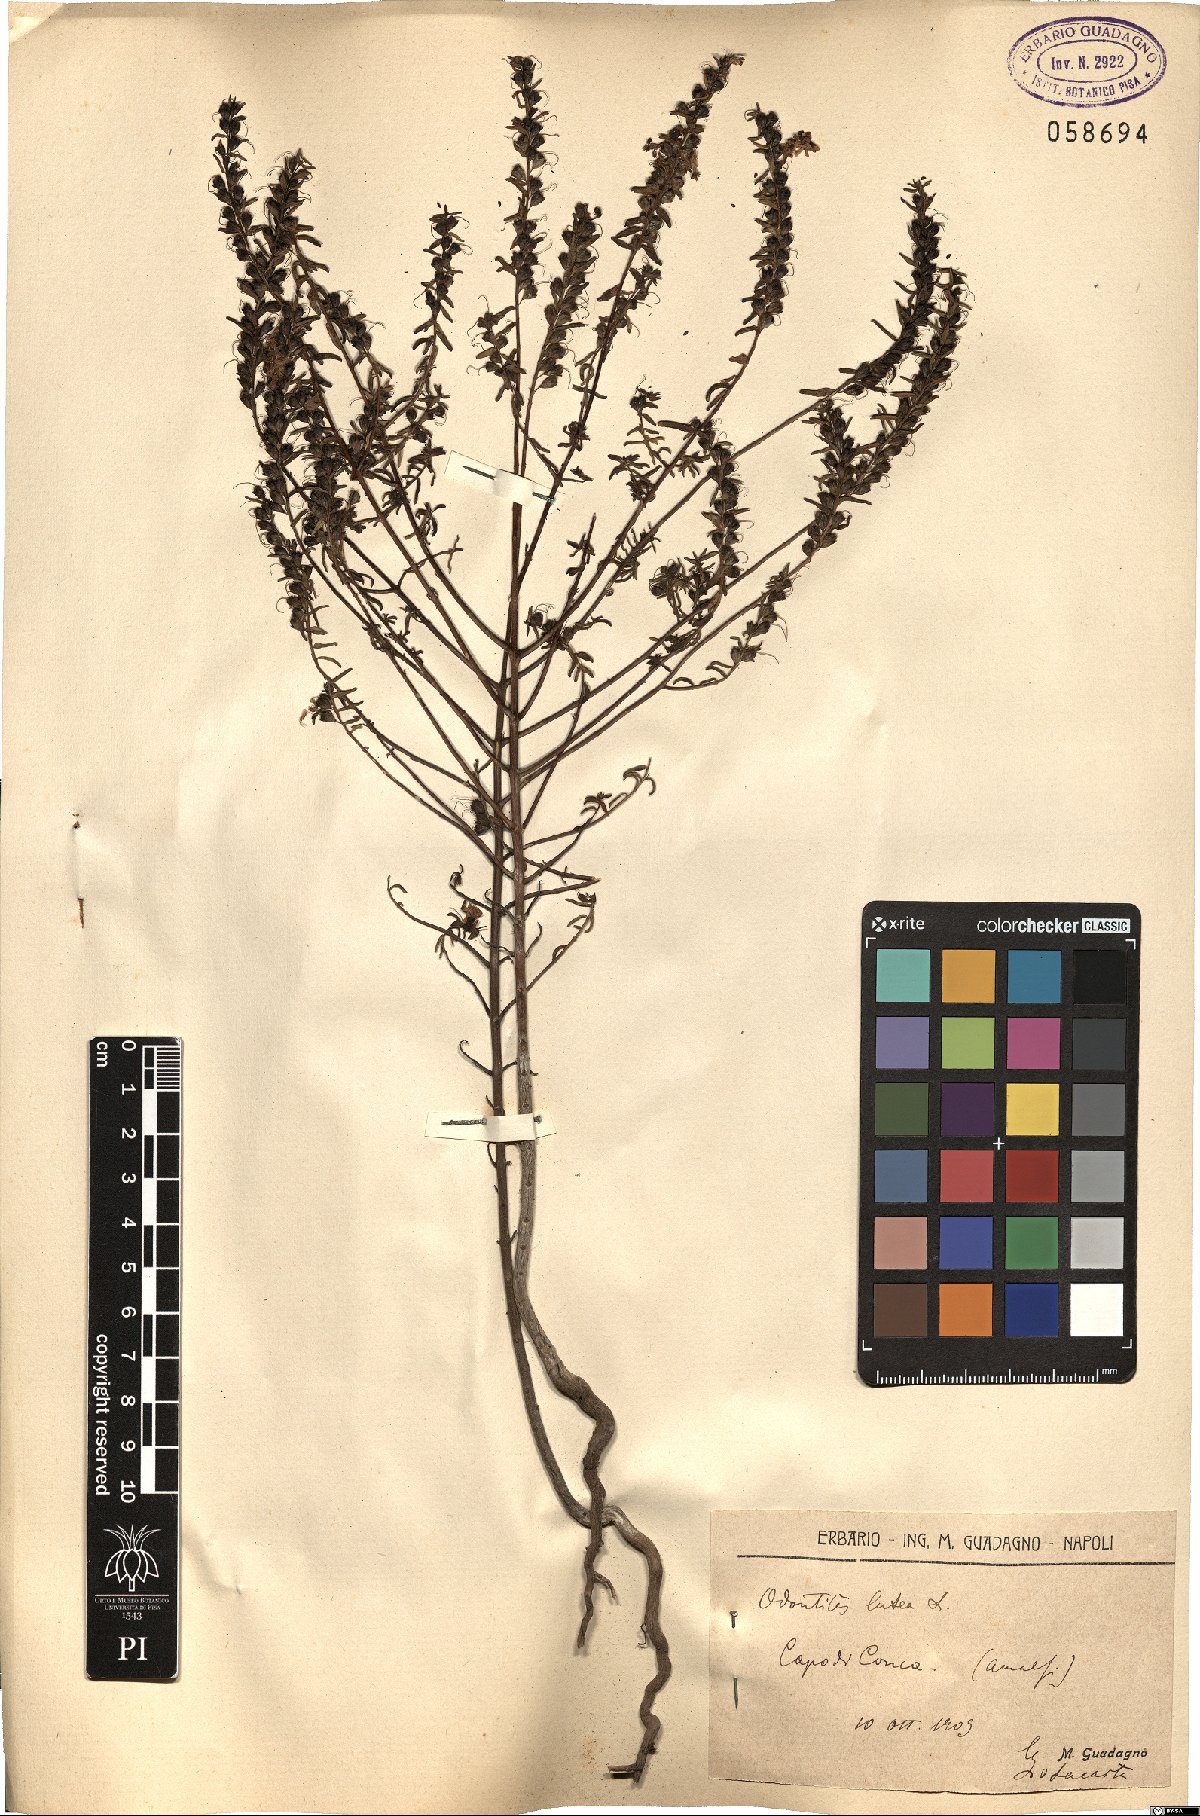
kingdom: Plantae
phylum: Tracheophyta
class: Magnoliopsida
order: Lamiales
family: Orobanchaceae
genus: Odontites
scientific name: Odontites luteus
